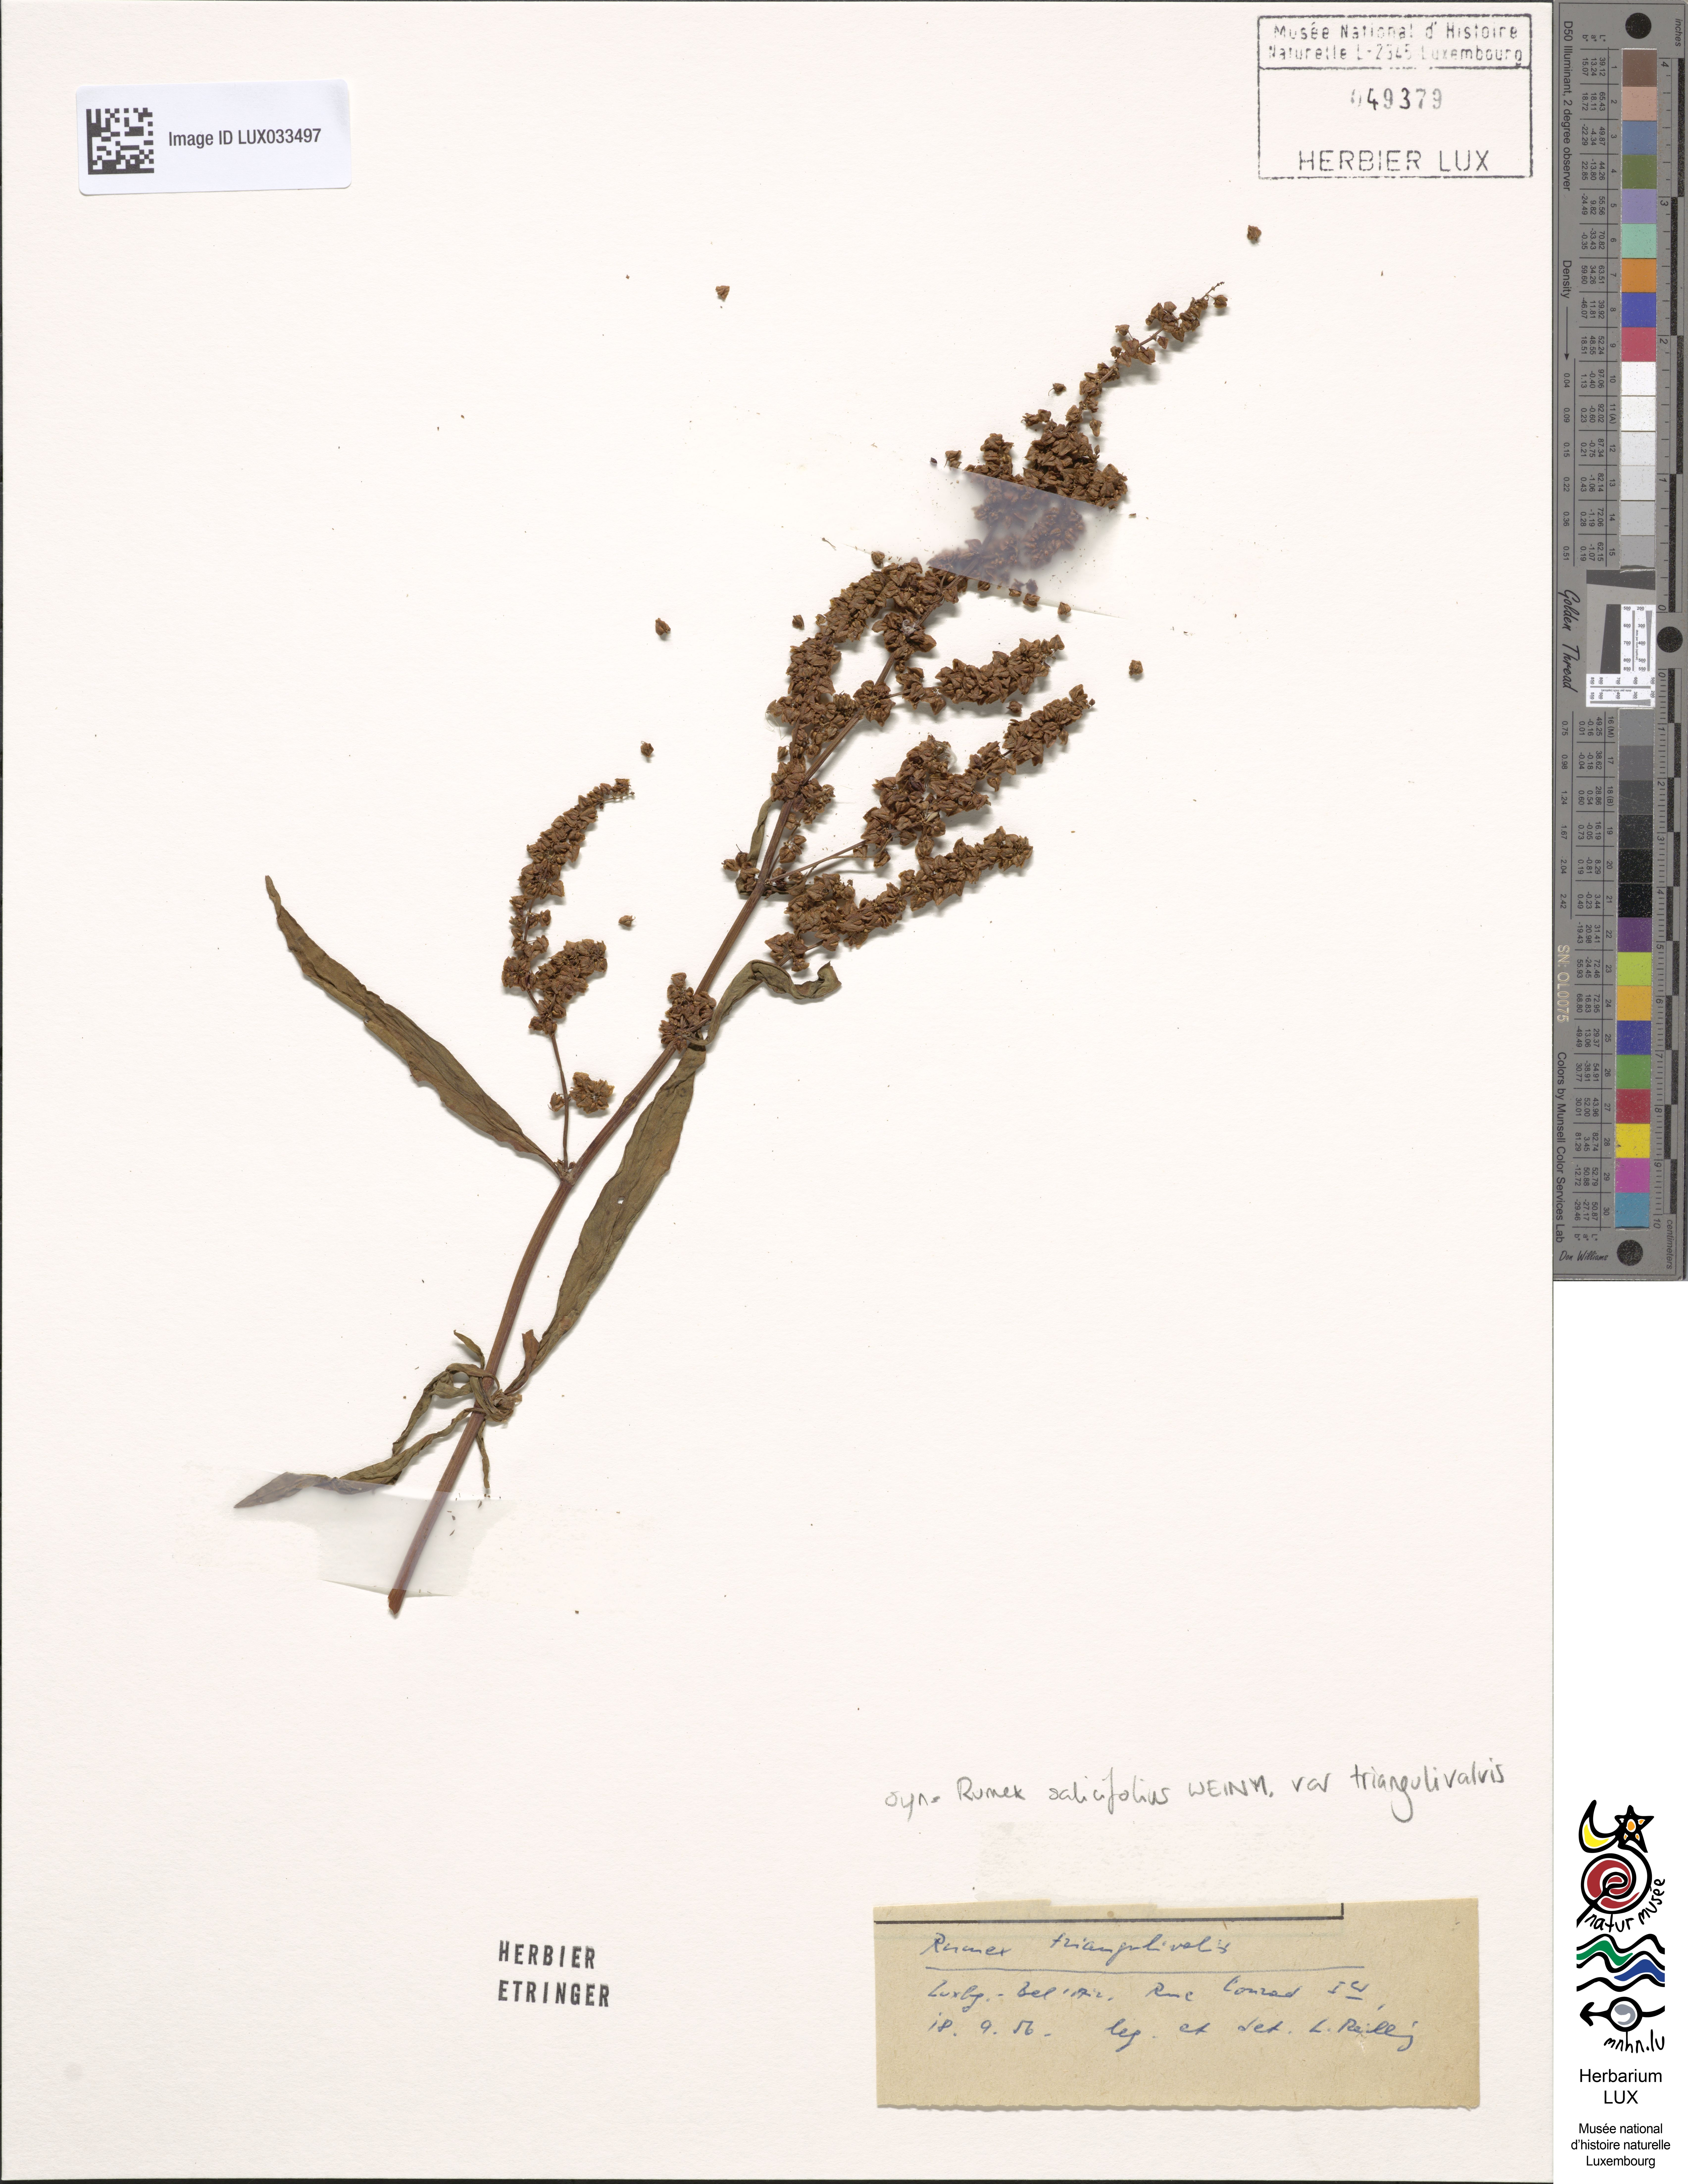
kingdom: Plantae
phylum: Tracheophyta
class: Magnoliopsida
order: Caryophyllales
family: Polygonaceae
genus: Rumex
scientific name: Rumex triangulivalvis
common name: Triangular-valve dock
